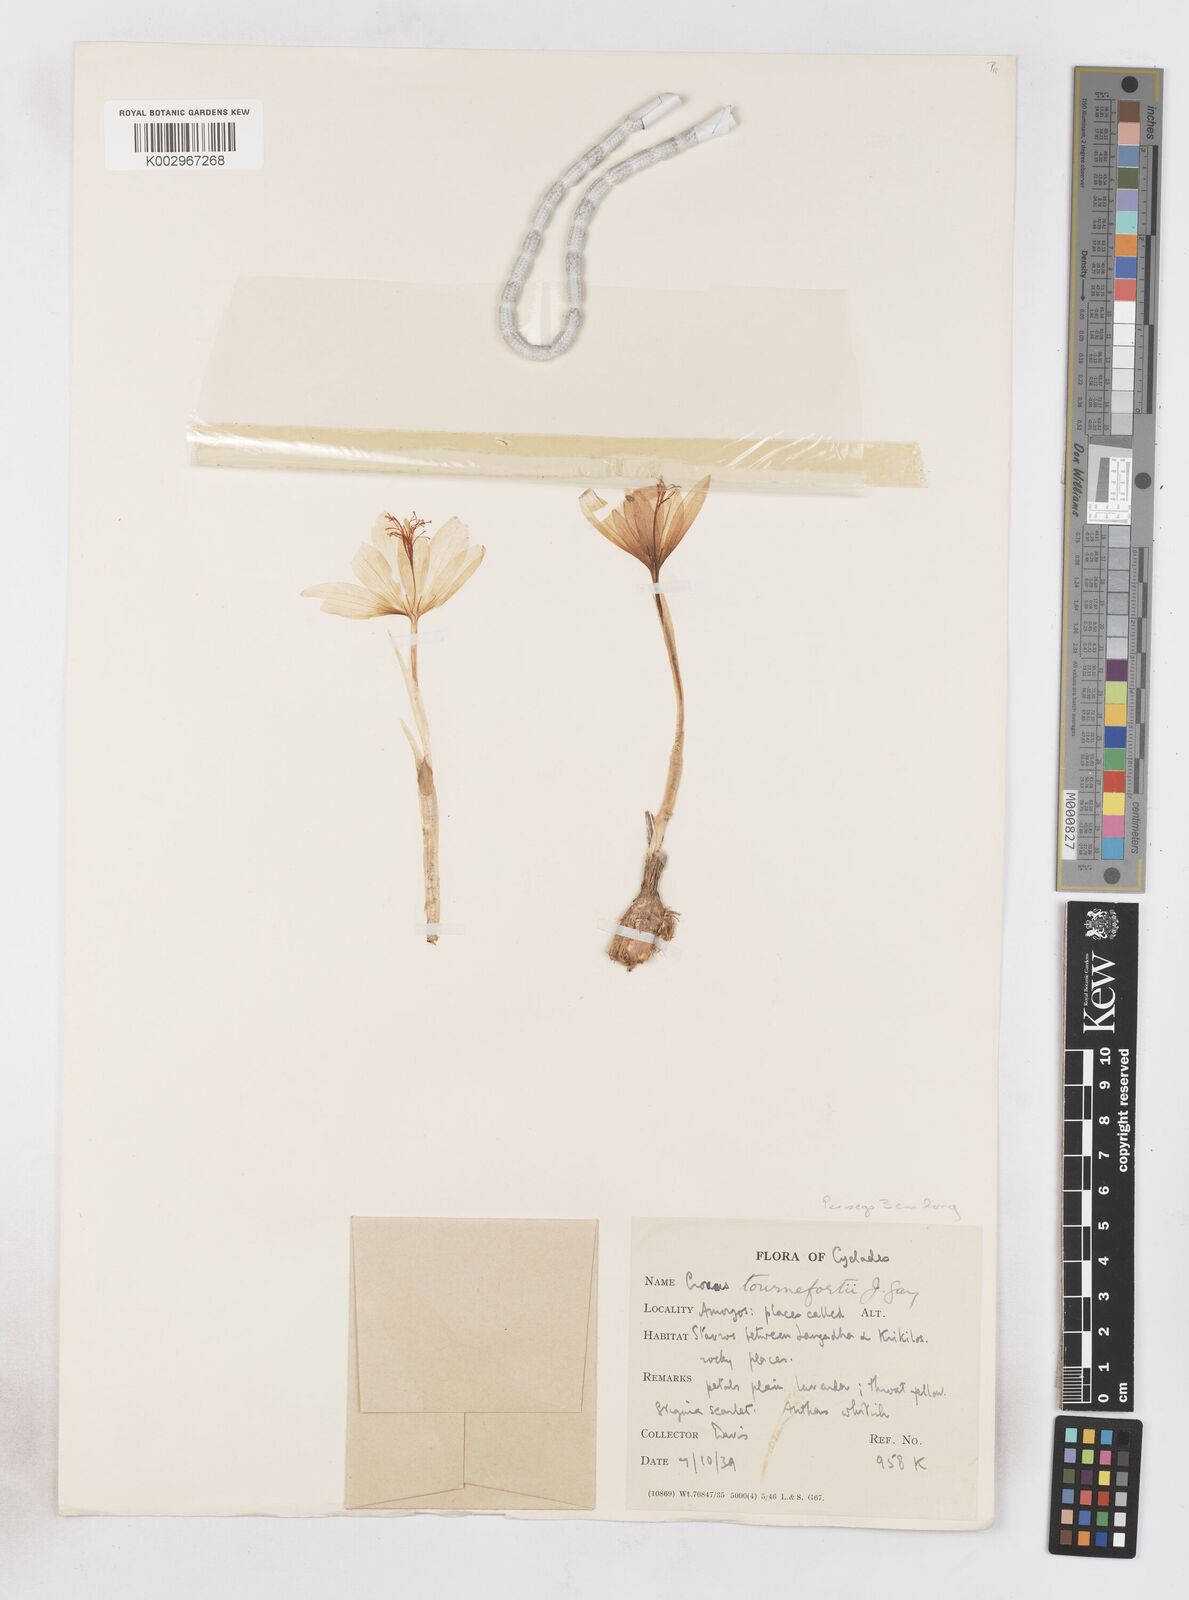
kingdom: Plantae
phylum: Tracheophyta
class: Liliopsida
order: Asparagales
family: Iridaceae
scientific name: Iridaceae
